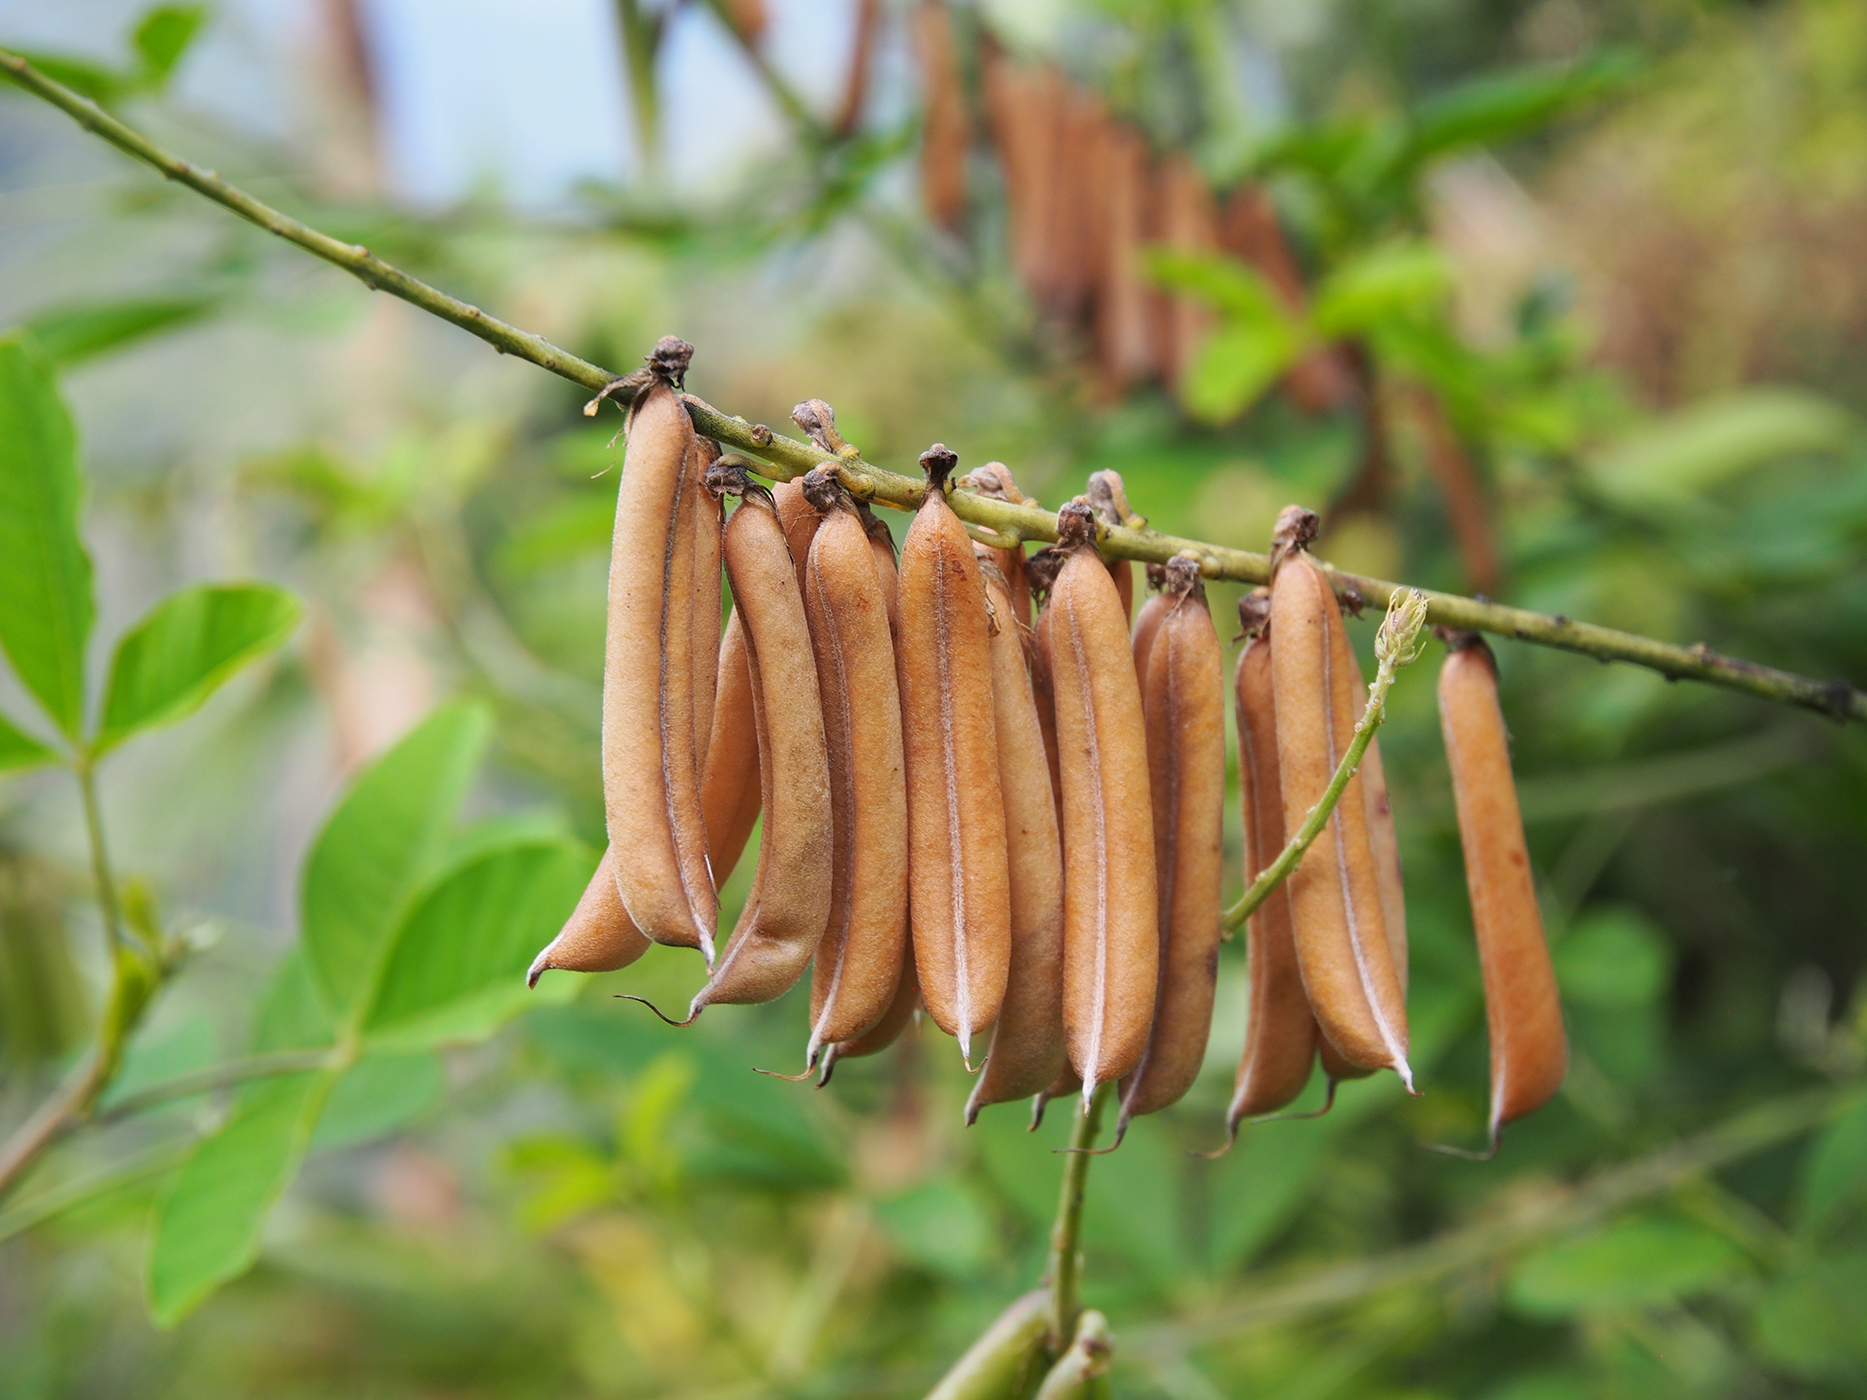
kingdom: Plantae
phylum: Tracheophyta
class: Magnoliopsida
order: Fabales
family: Fabaceae
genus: Crotalaria
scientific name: Crotalaria pallida
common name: Smooth rattlebox
